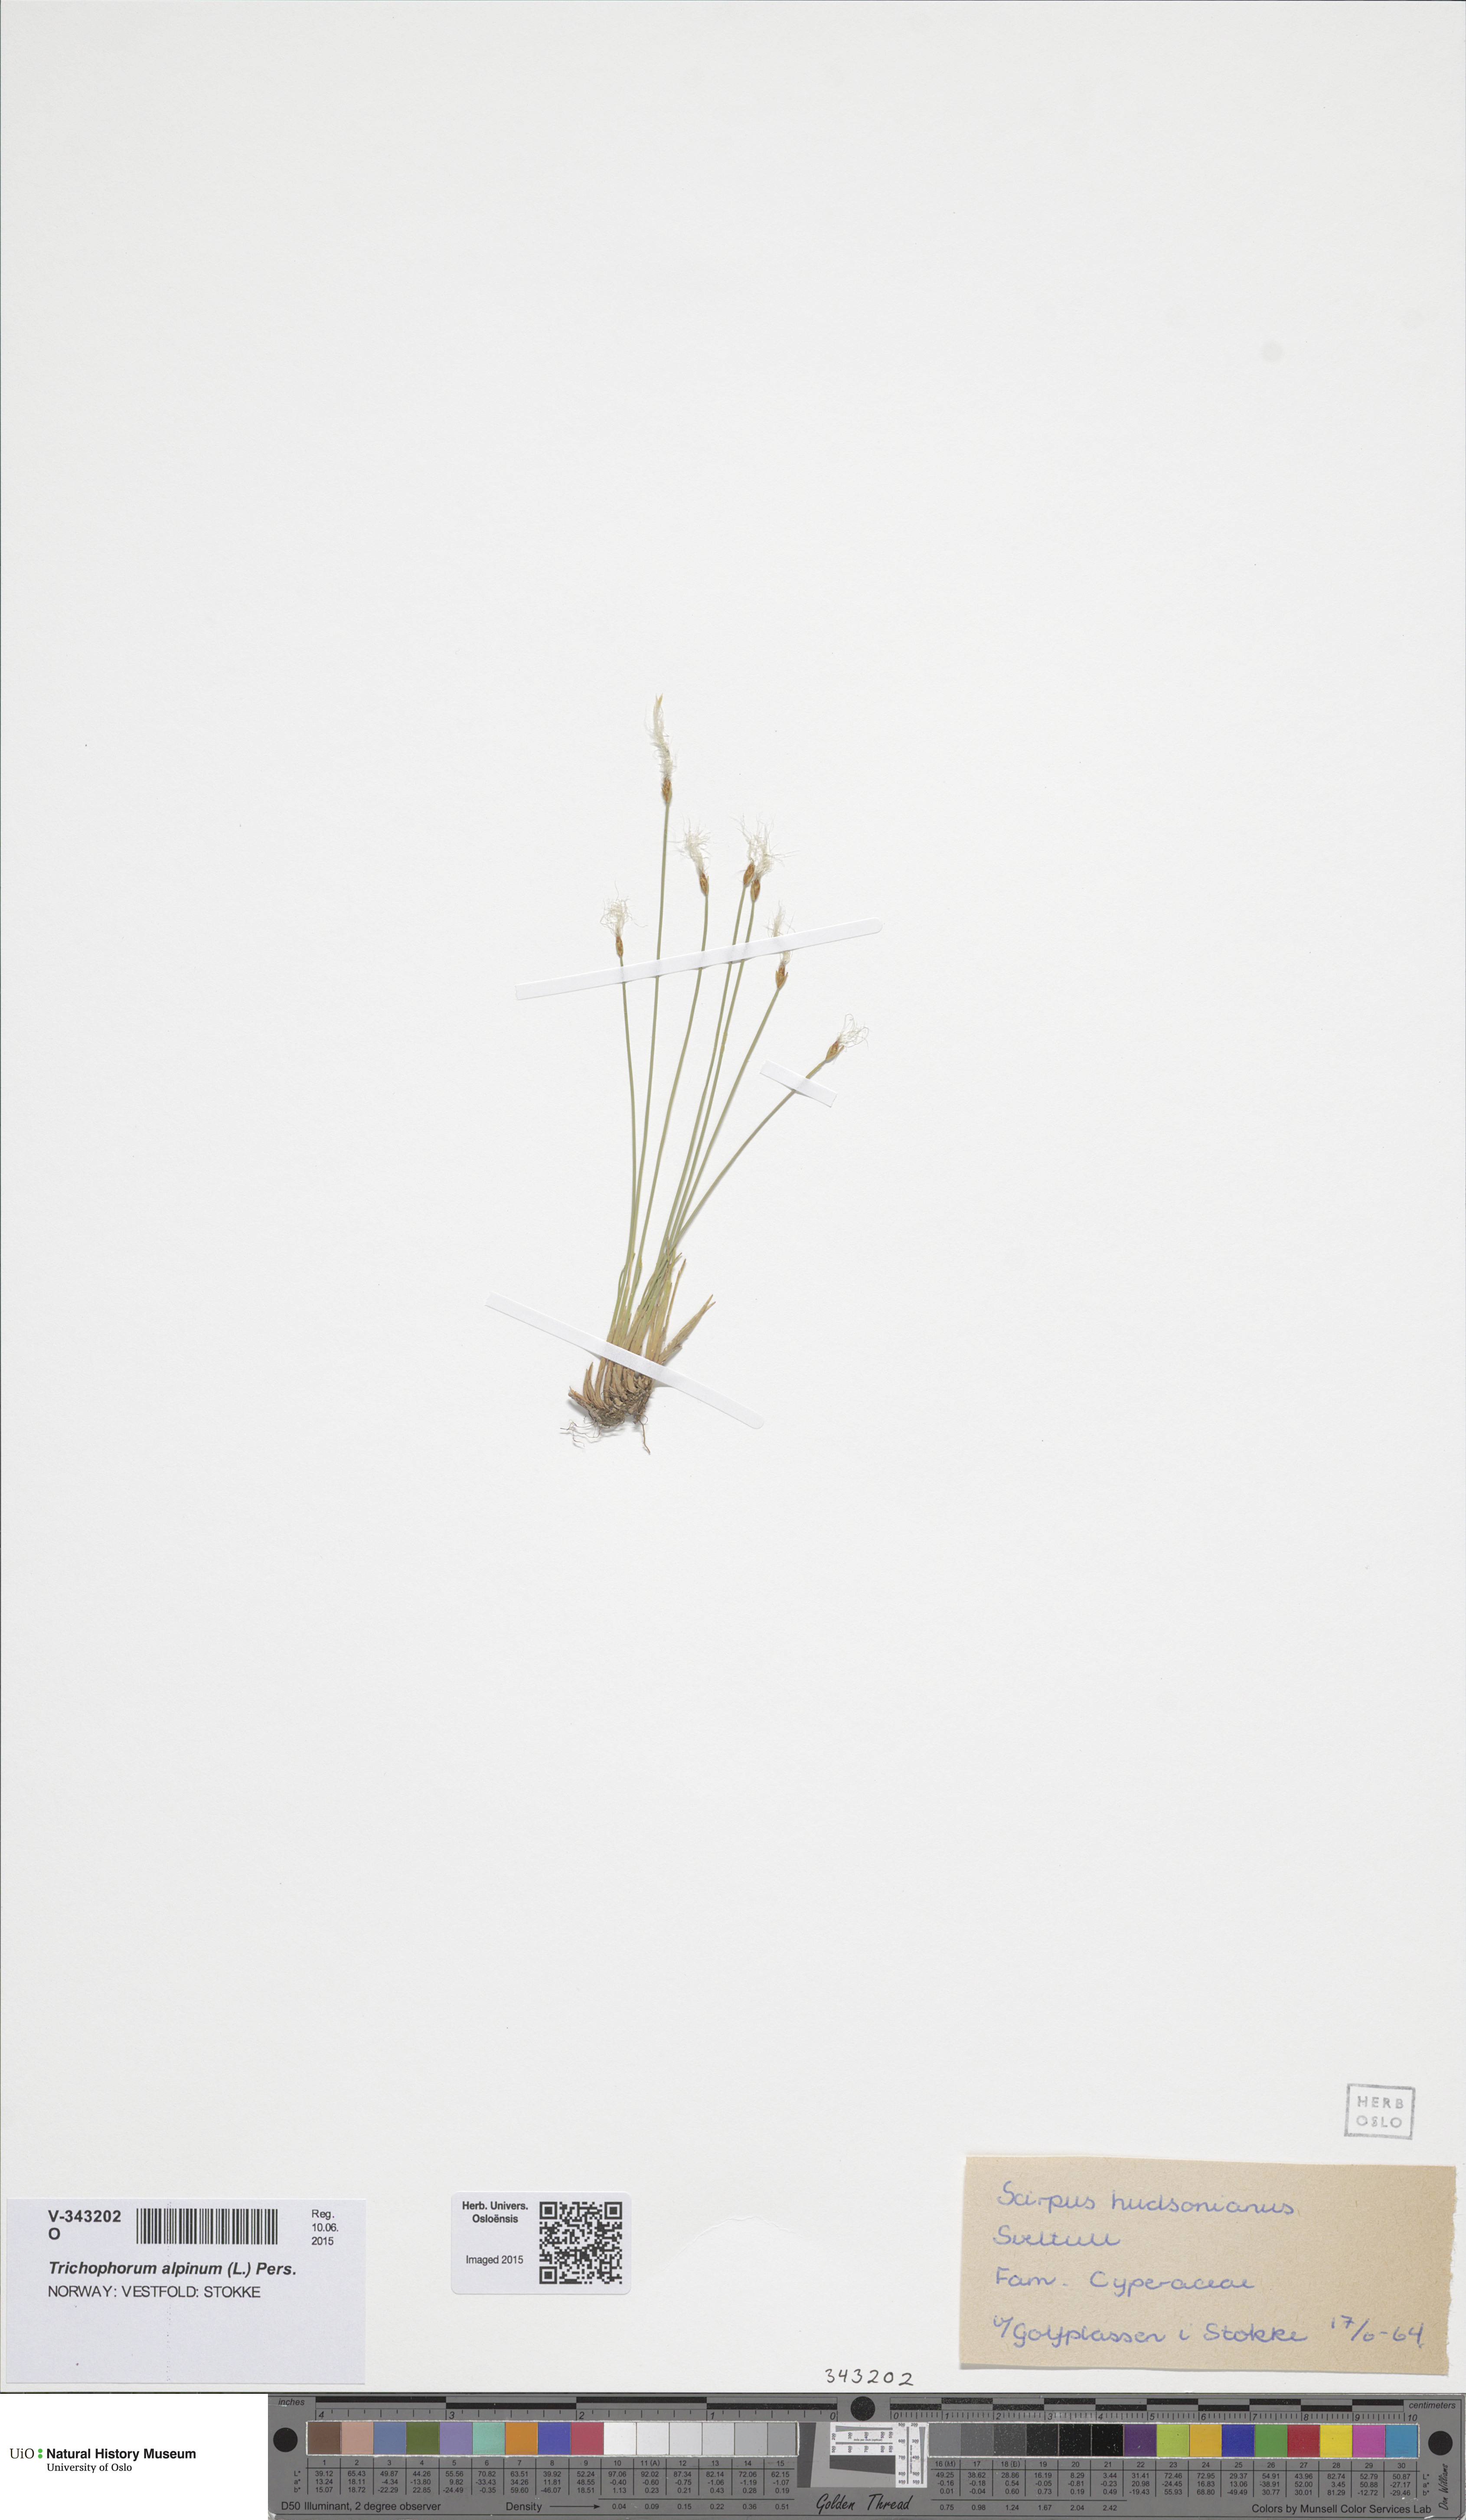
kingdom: Plantae
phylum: Tracheophyta
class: Liliopsida
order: Poales
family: Cyperaceae
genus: Trichophorum
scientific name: Trichophorum alpinum
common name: Alpine bulrush
